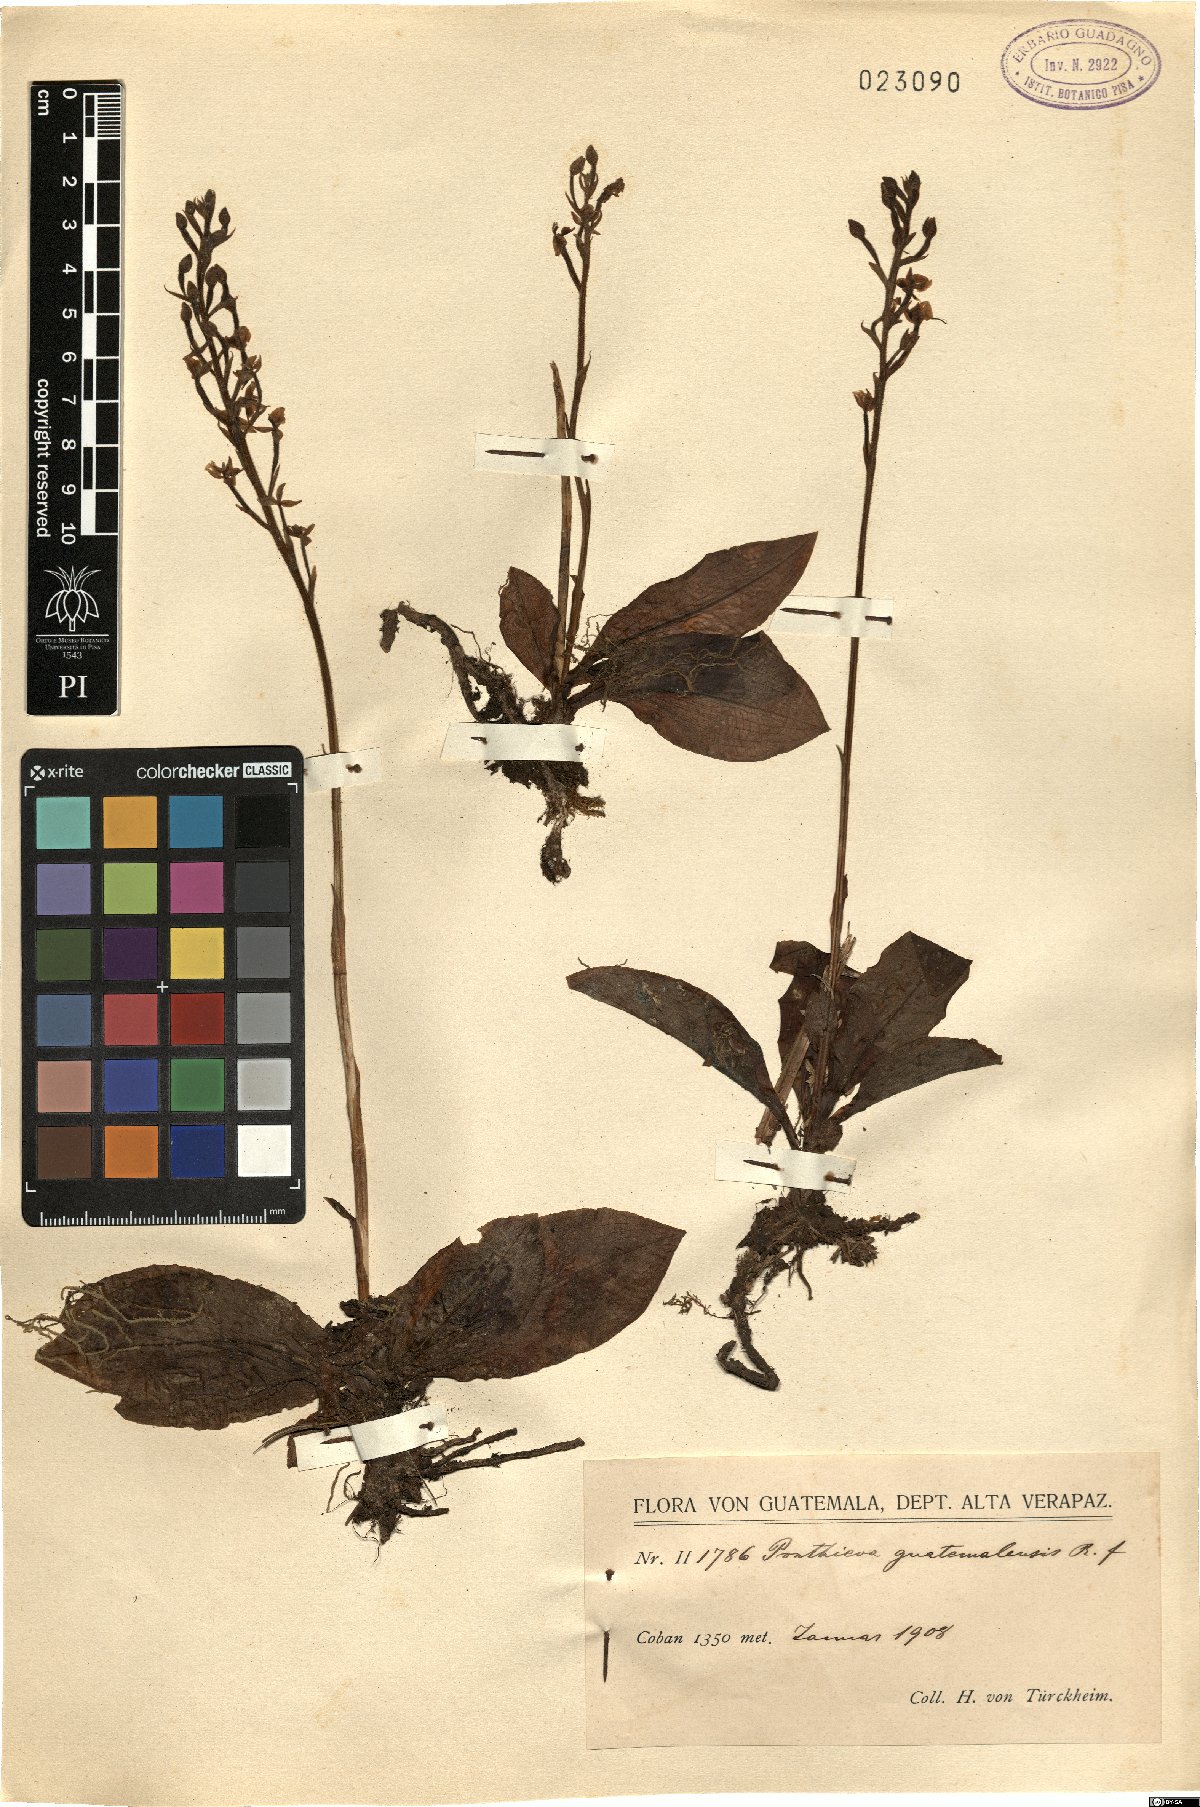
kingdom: Plantae
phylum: Tracheophyta
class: Liliopsida
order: Asparagales
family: Orchidaceae
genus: Ponthieva
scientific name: Ponthieva racemosa
